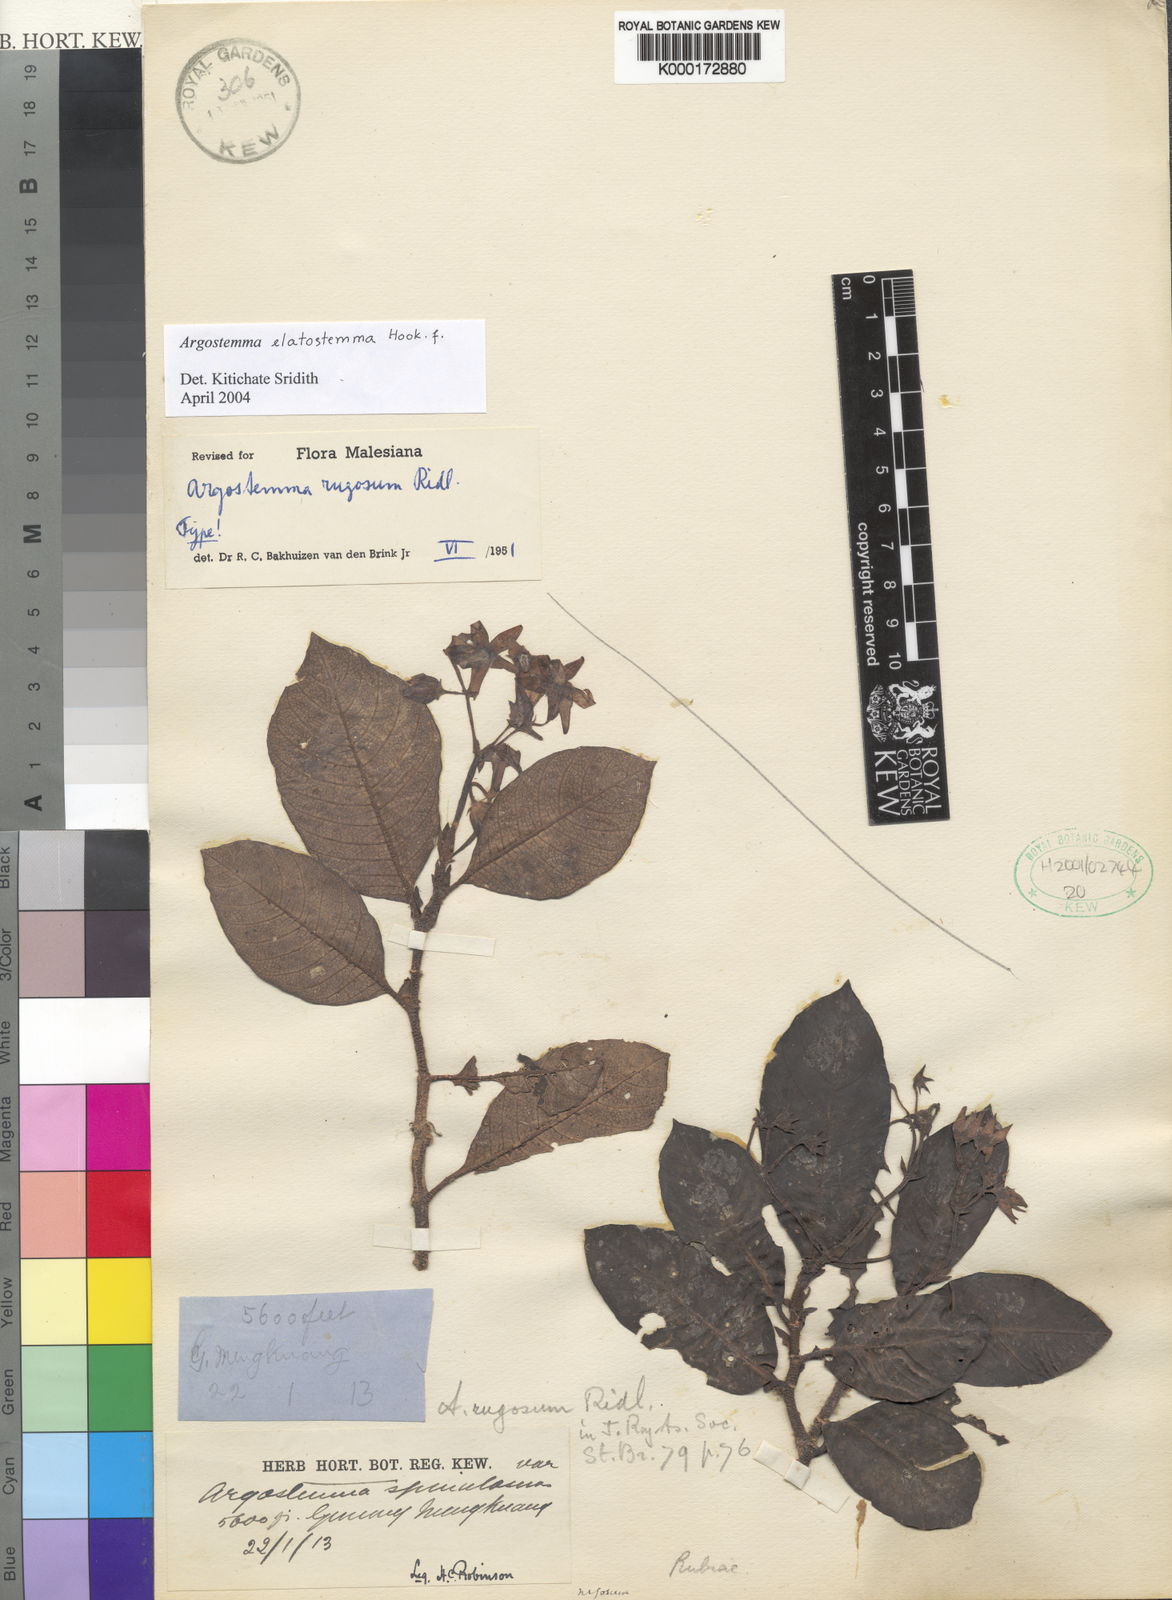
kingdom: Plantae
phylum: Tracheophyta
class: Magnoliopsida
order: Gentianales
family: Rubiaceae
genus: Argostemma
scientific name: Argostemma rugosum
